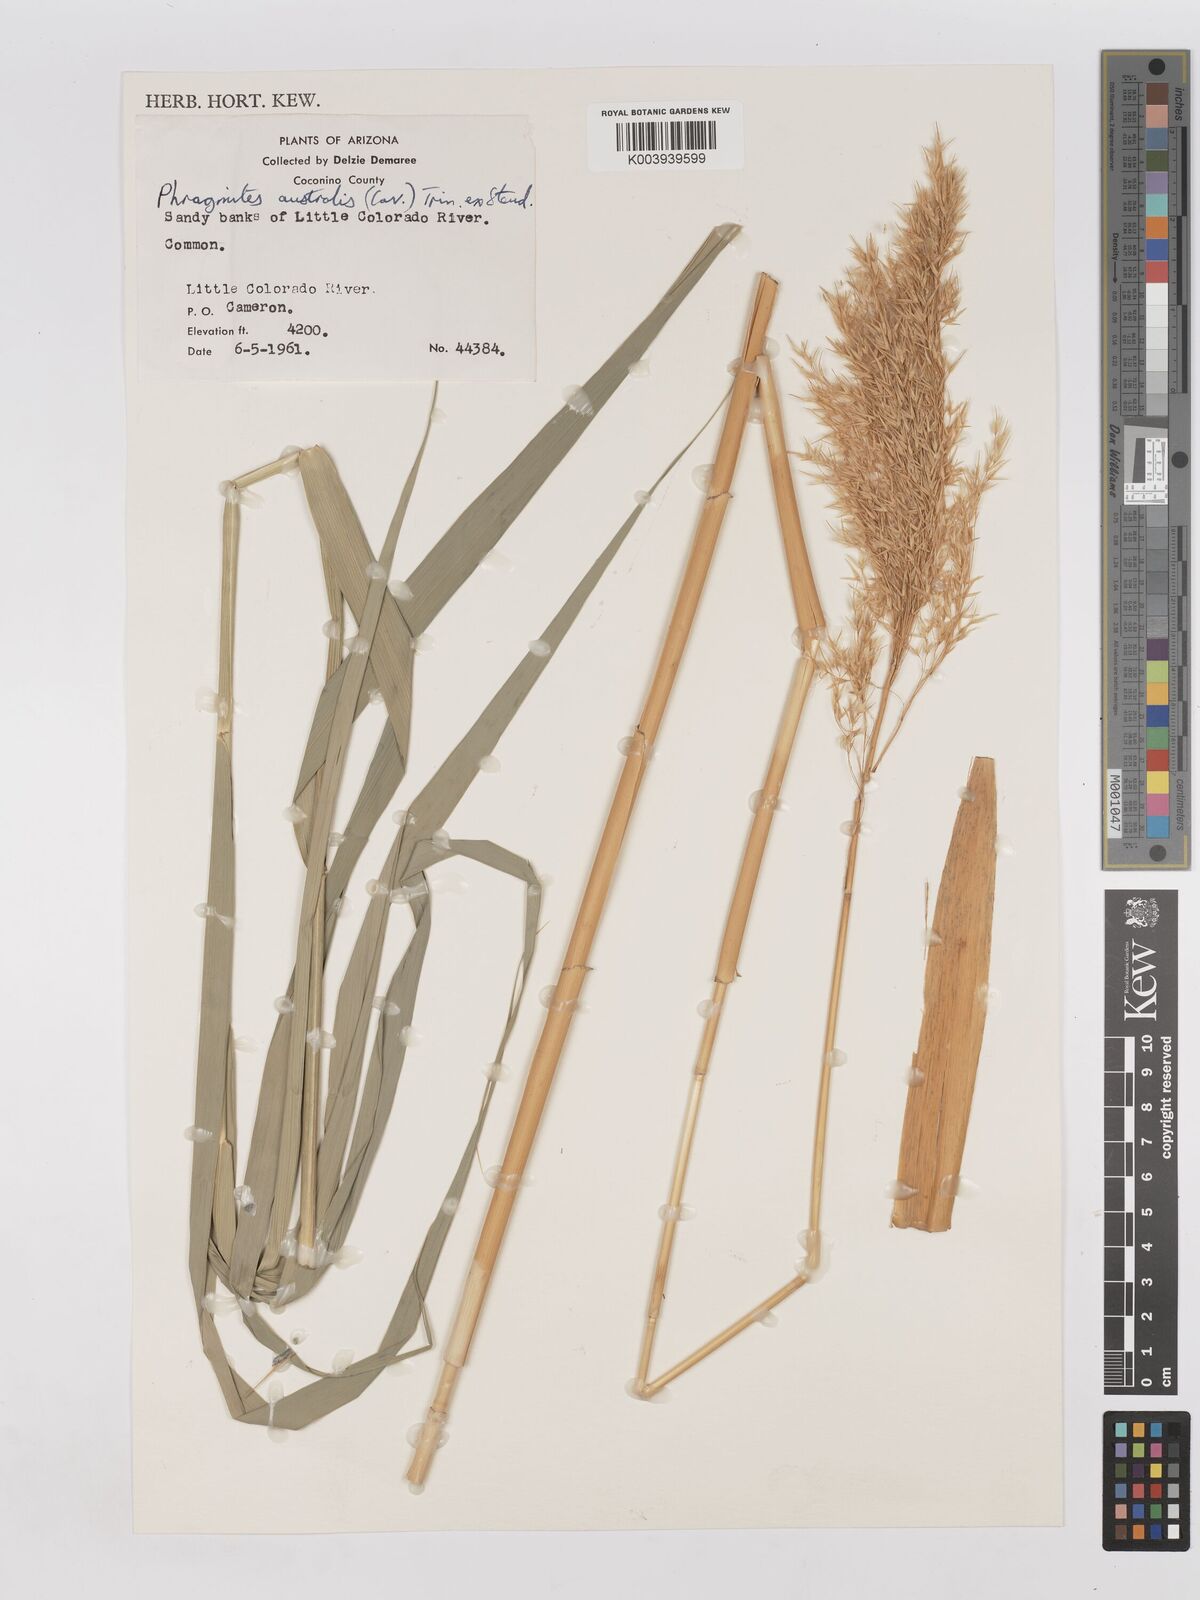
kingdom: Plantae
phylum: Tracheophyta
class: Liliopsida
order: Poales
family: Poaceae
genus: Phragmites
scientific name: Phragmites australis
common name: Common reed
